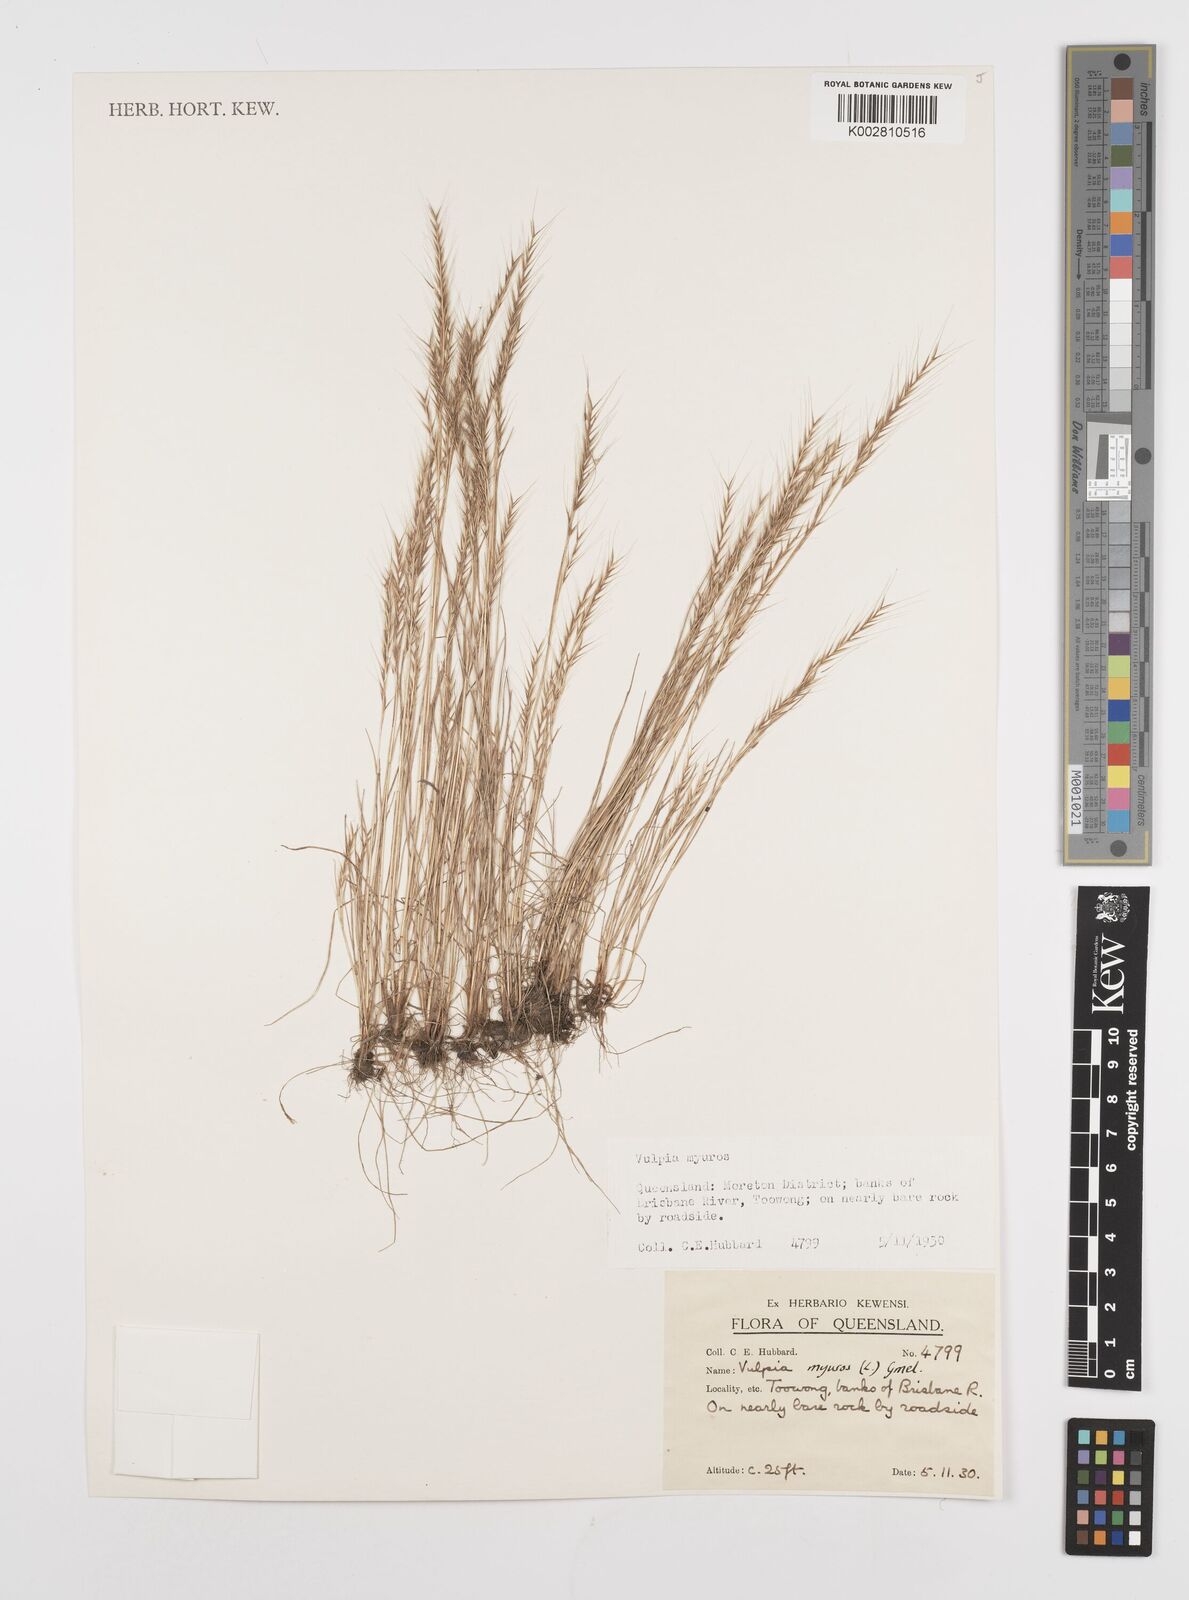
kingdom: Plantae
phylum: Tracheophyta
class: Liliopsida
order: Poales
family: Poaceae
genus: Festuca
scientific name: Festuca myuros
